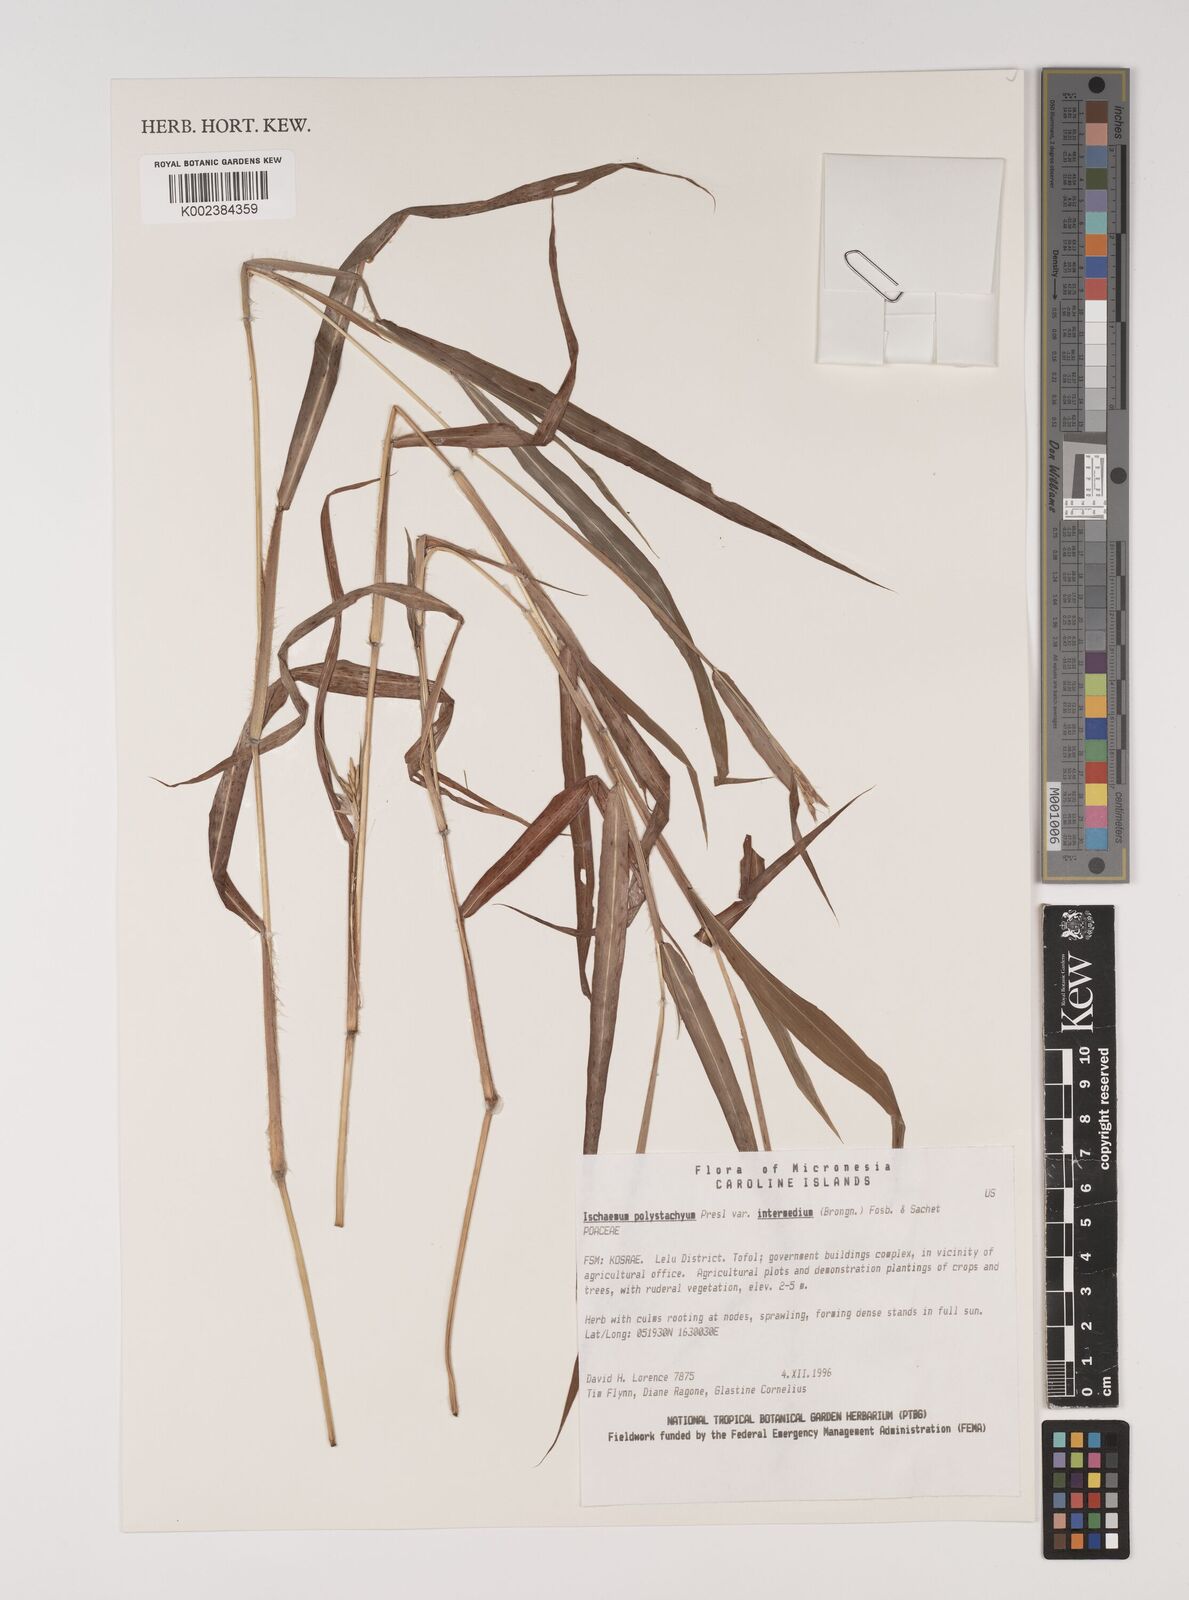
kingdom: Plantae
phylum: Tracheophyta
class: Liliopsida
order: Poales
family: Poaceae
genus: Ischaemum
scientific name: Ischaemum polystachyum
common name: Paddle grass
